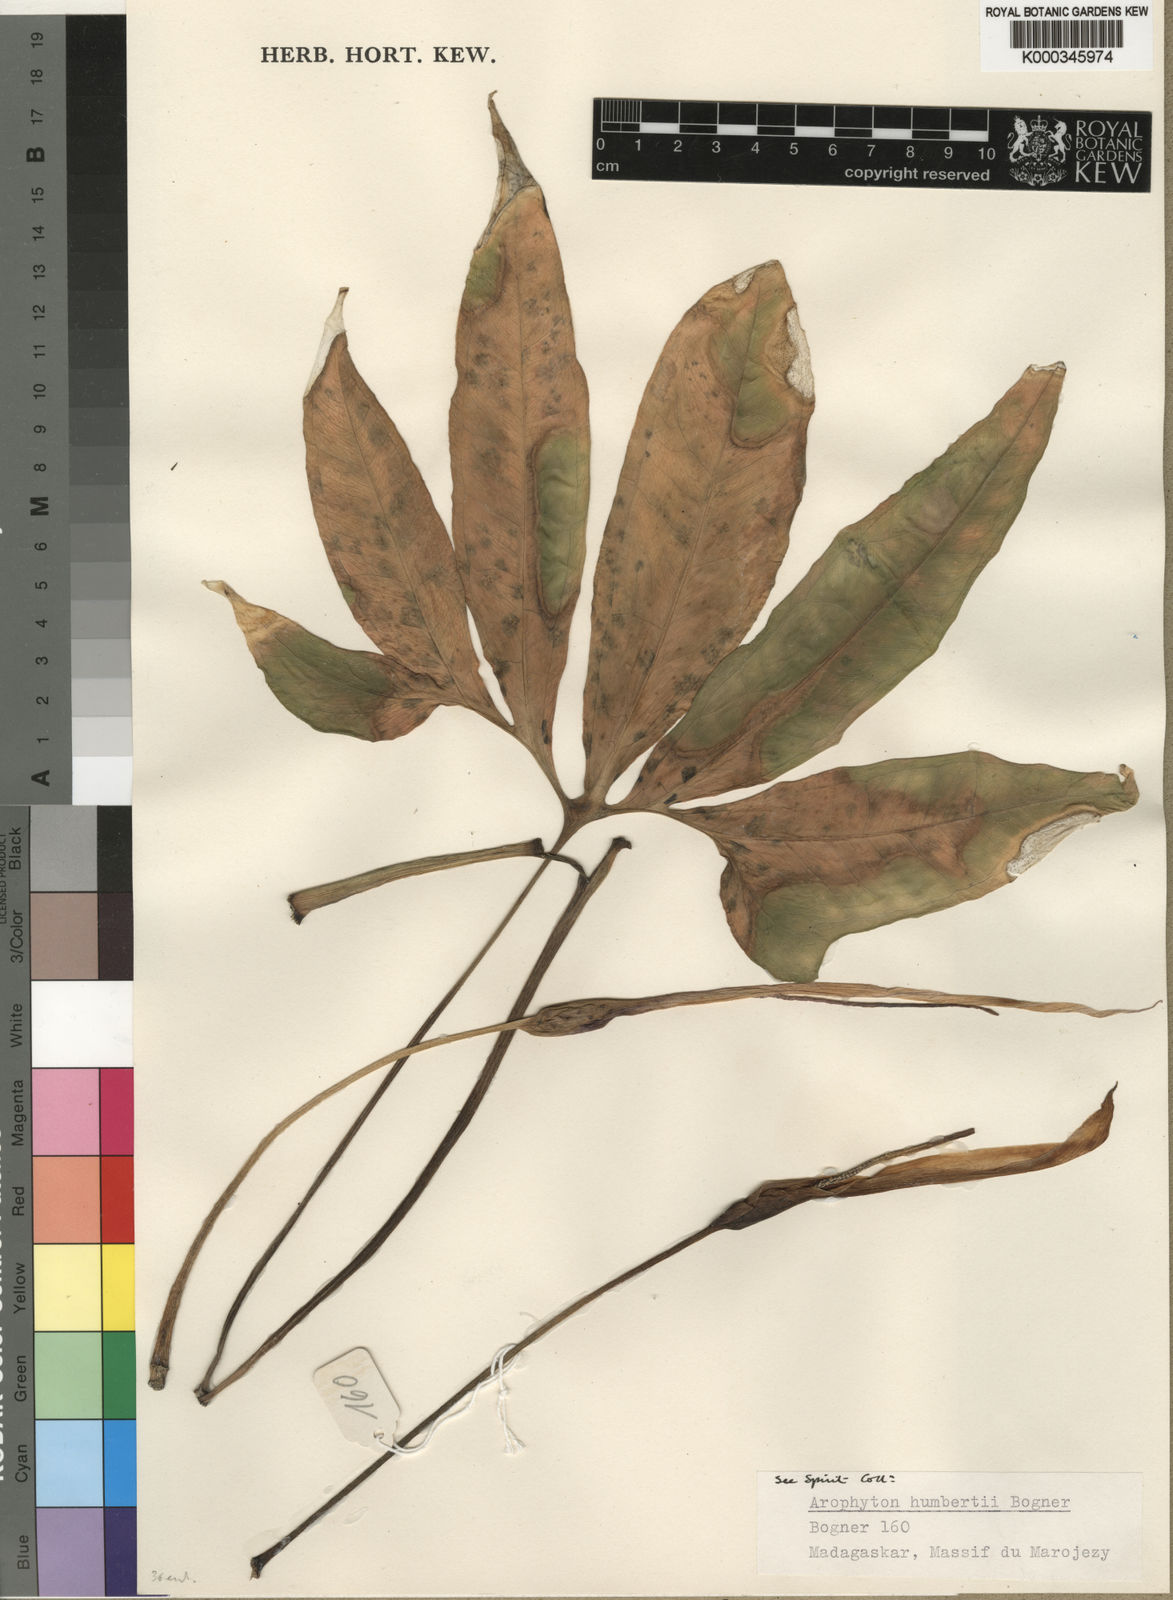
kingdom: Plantae
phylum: Tracheophyta
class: Liliopsida
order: Alismatales
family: Araceae
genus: Arophyton
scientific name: Arophyton humbertii
